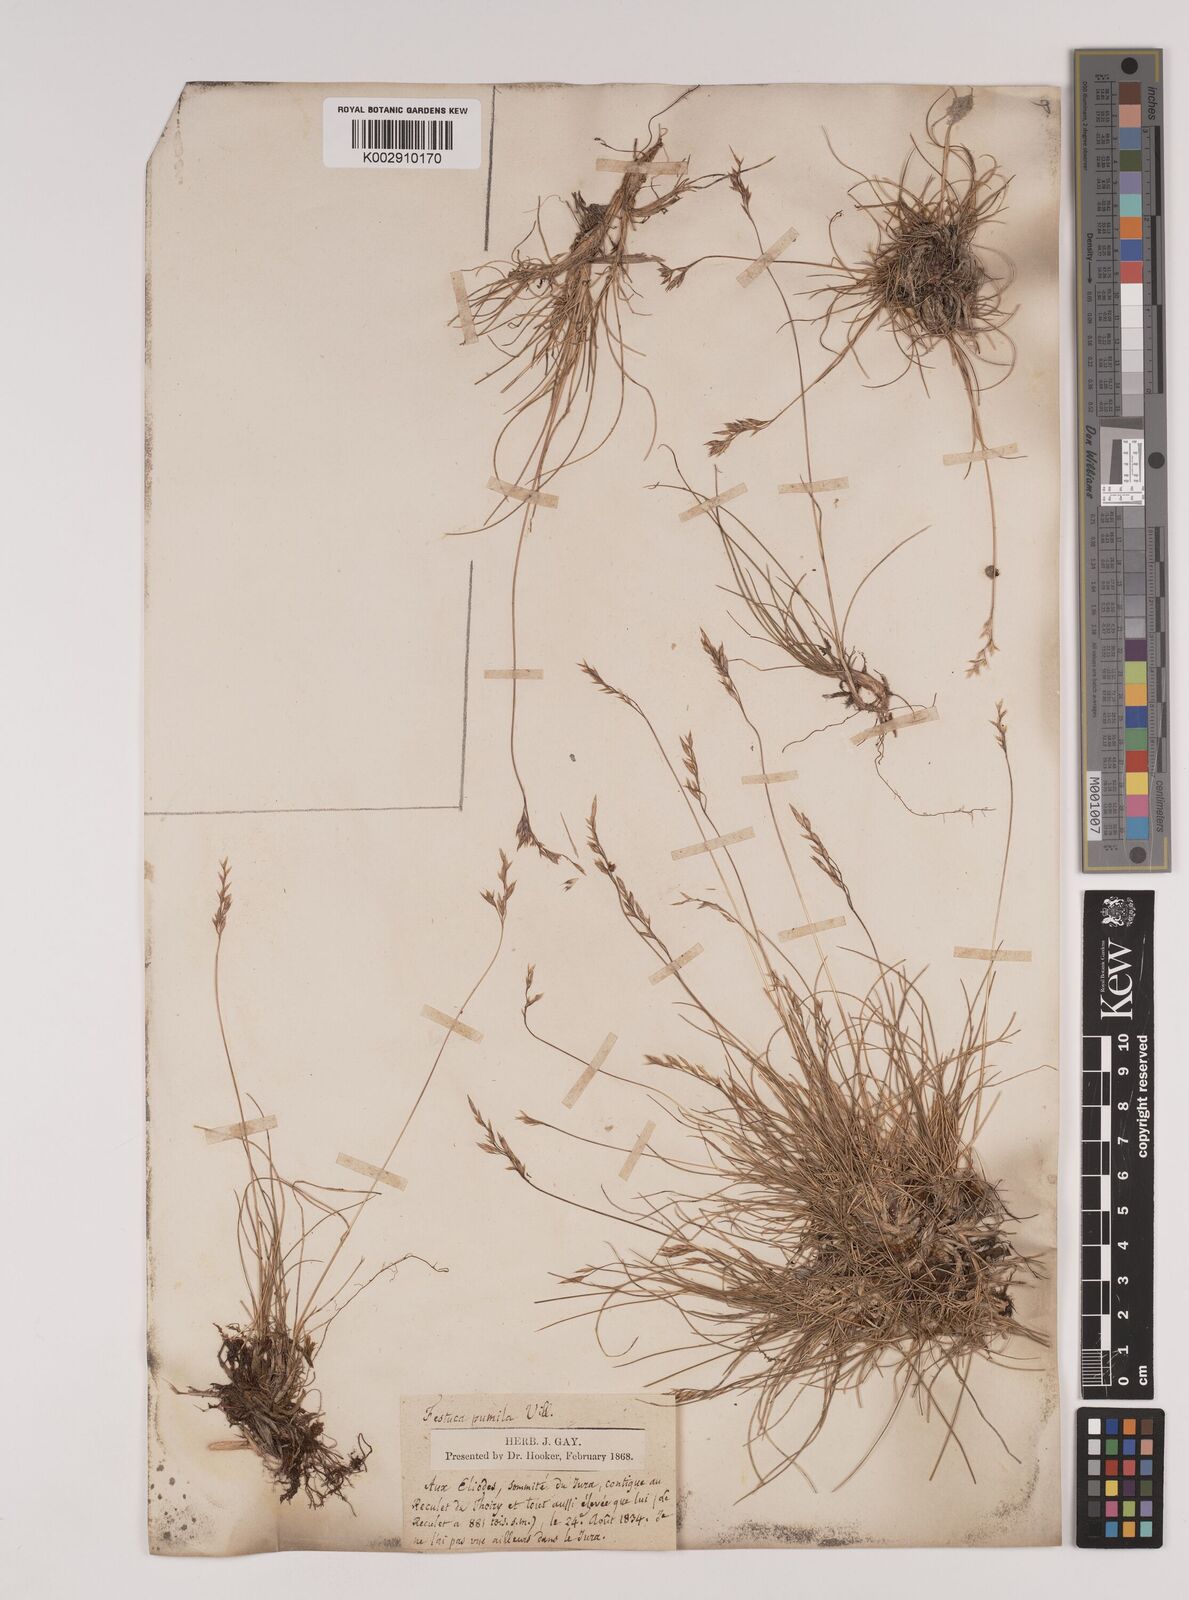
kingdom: Plantae
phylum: Tracheophyta
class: Liliopsida
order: Poales
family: Poaceae
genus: Festuca
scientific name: Festuca
